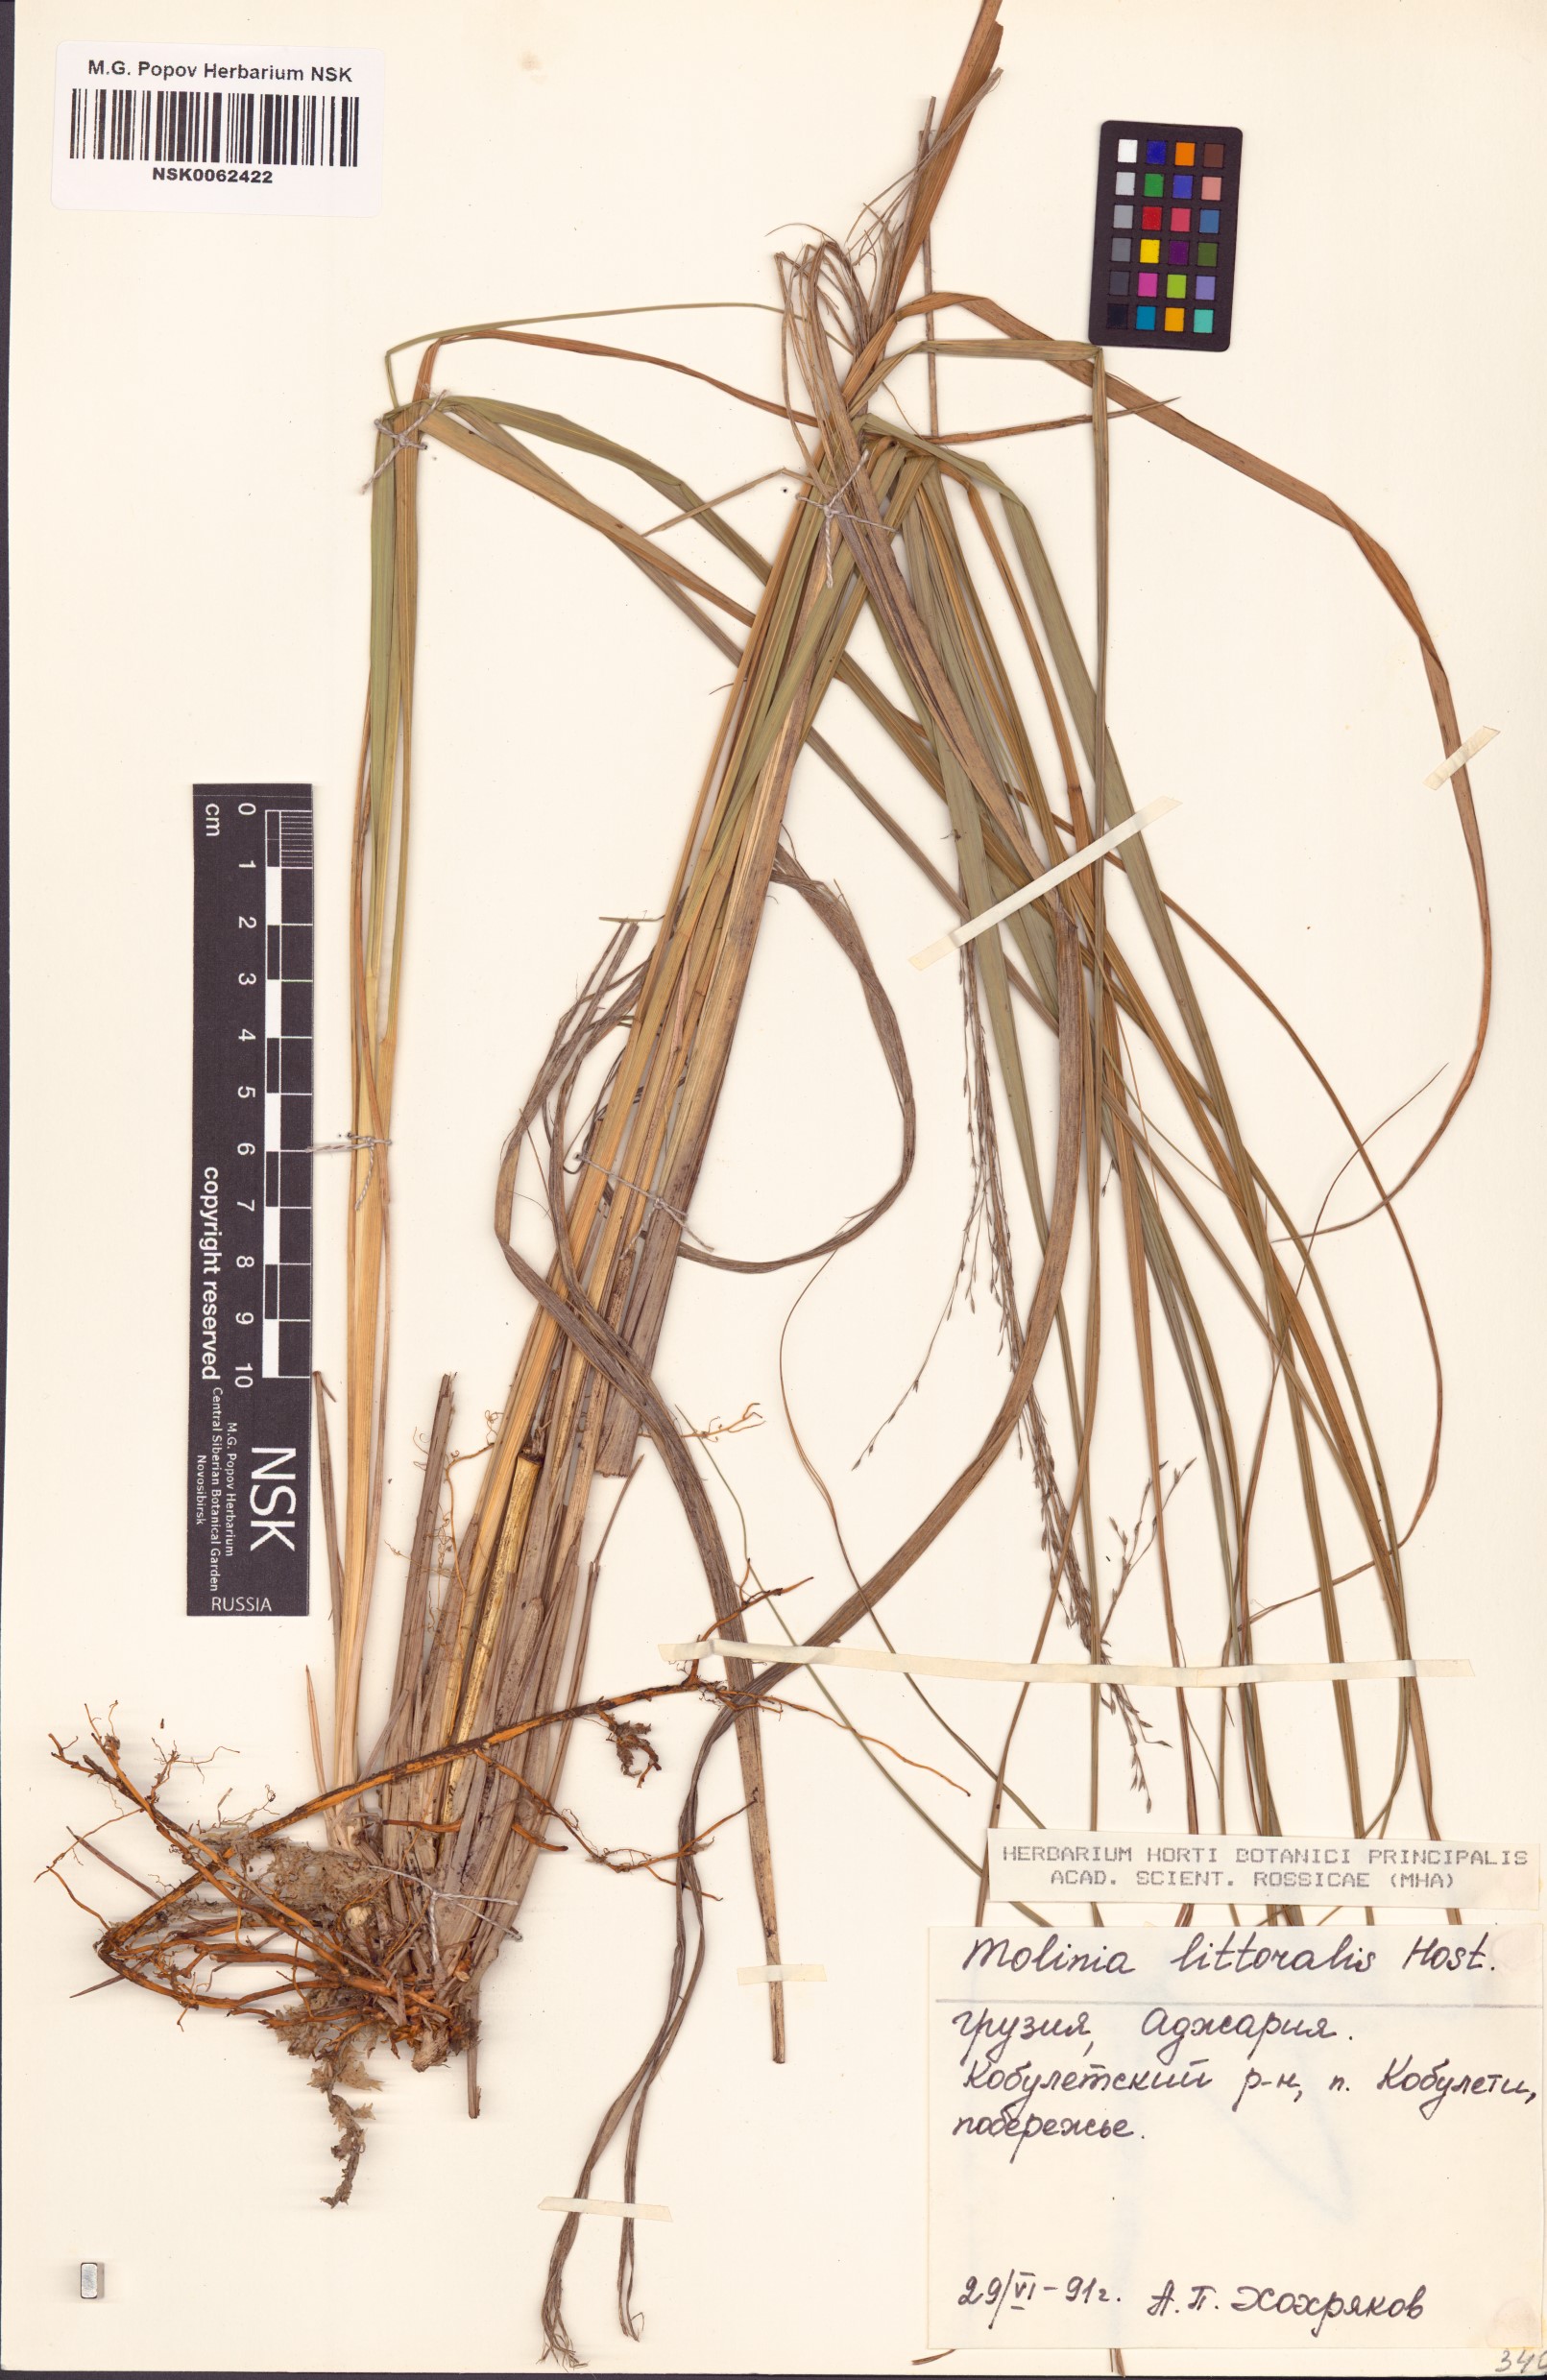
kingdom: Plantae
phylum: Tracheophyta
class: Liliopsida
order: Poales
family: Poaceae
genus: Molinia
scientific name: Molinia arundinacea
